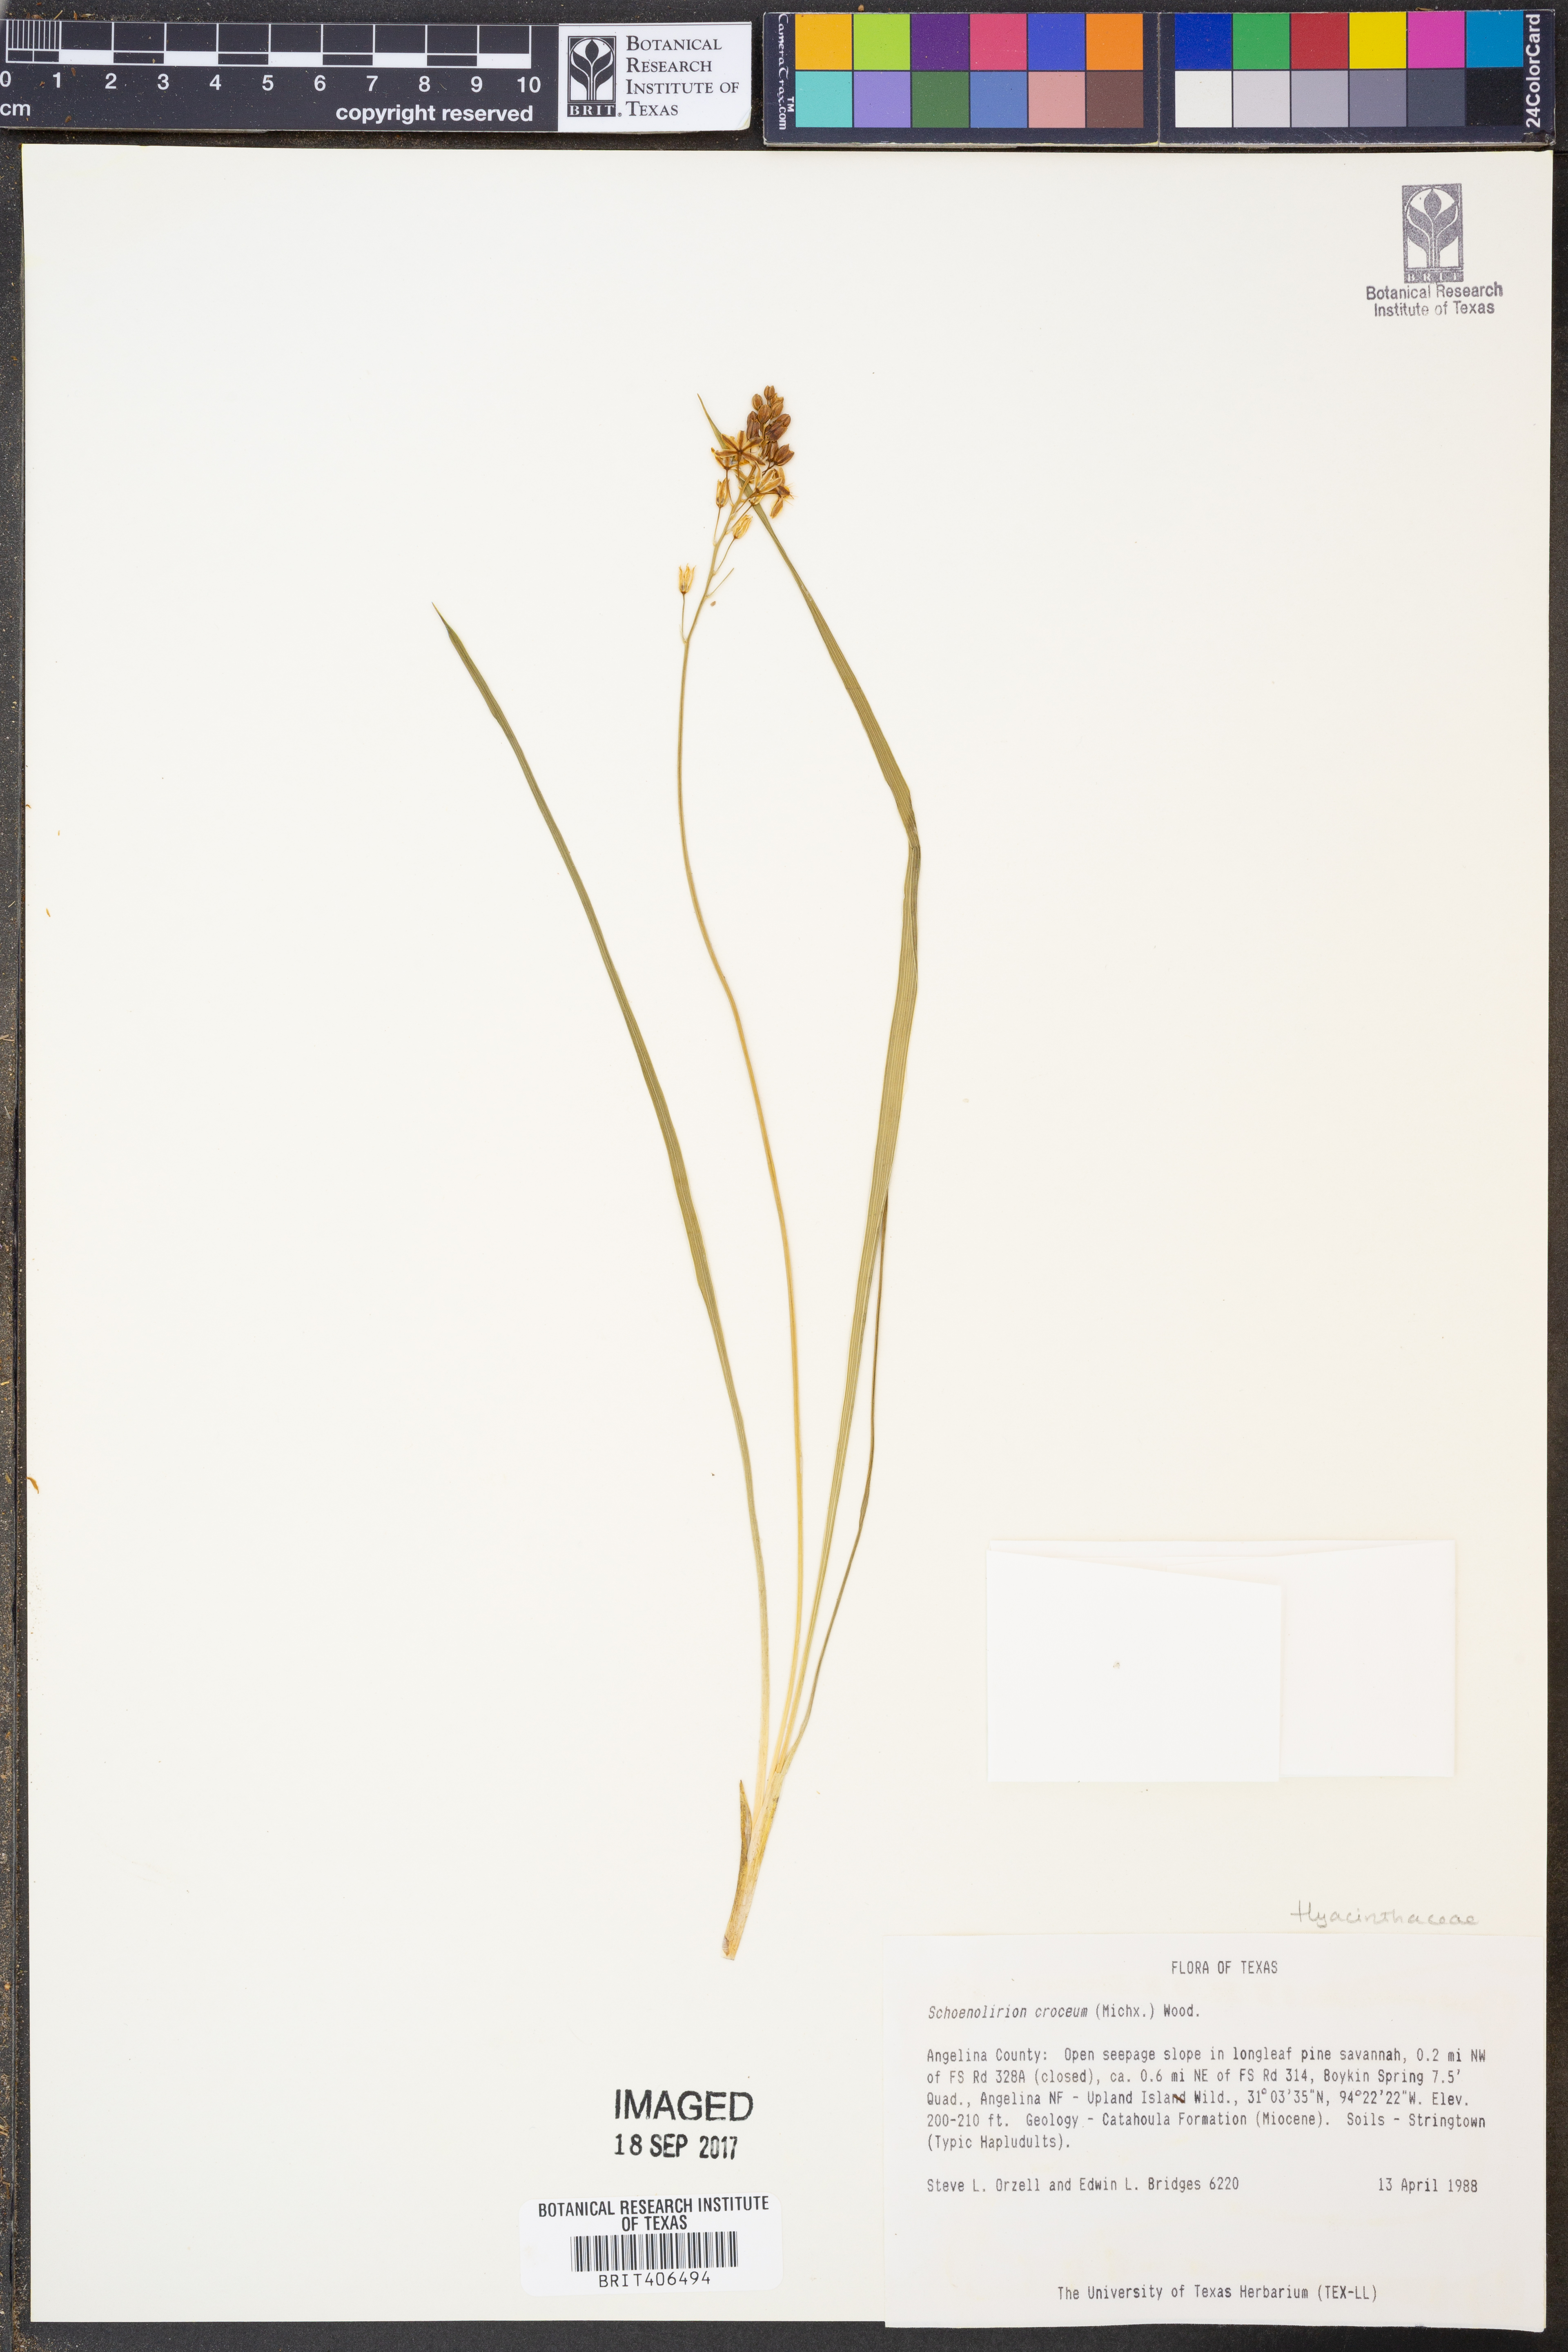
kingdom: Plantae
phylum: Tracheophyta
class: Liliopsida
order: Asparagales
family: Asparagaceae
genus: Schoenolirion
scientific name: Schoenolirion croceum
